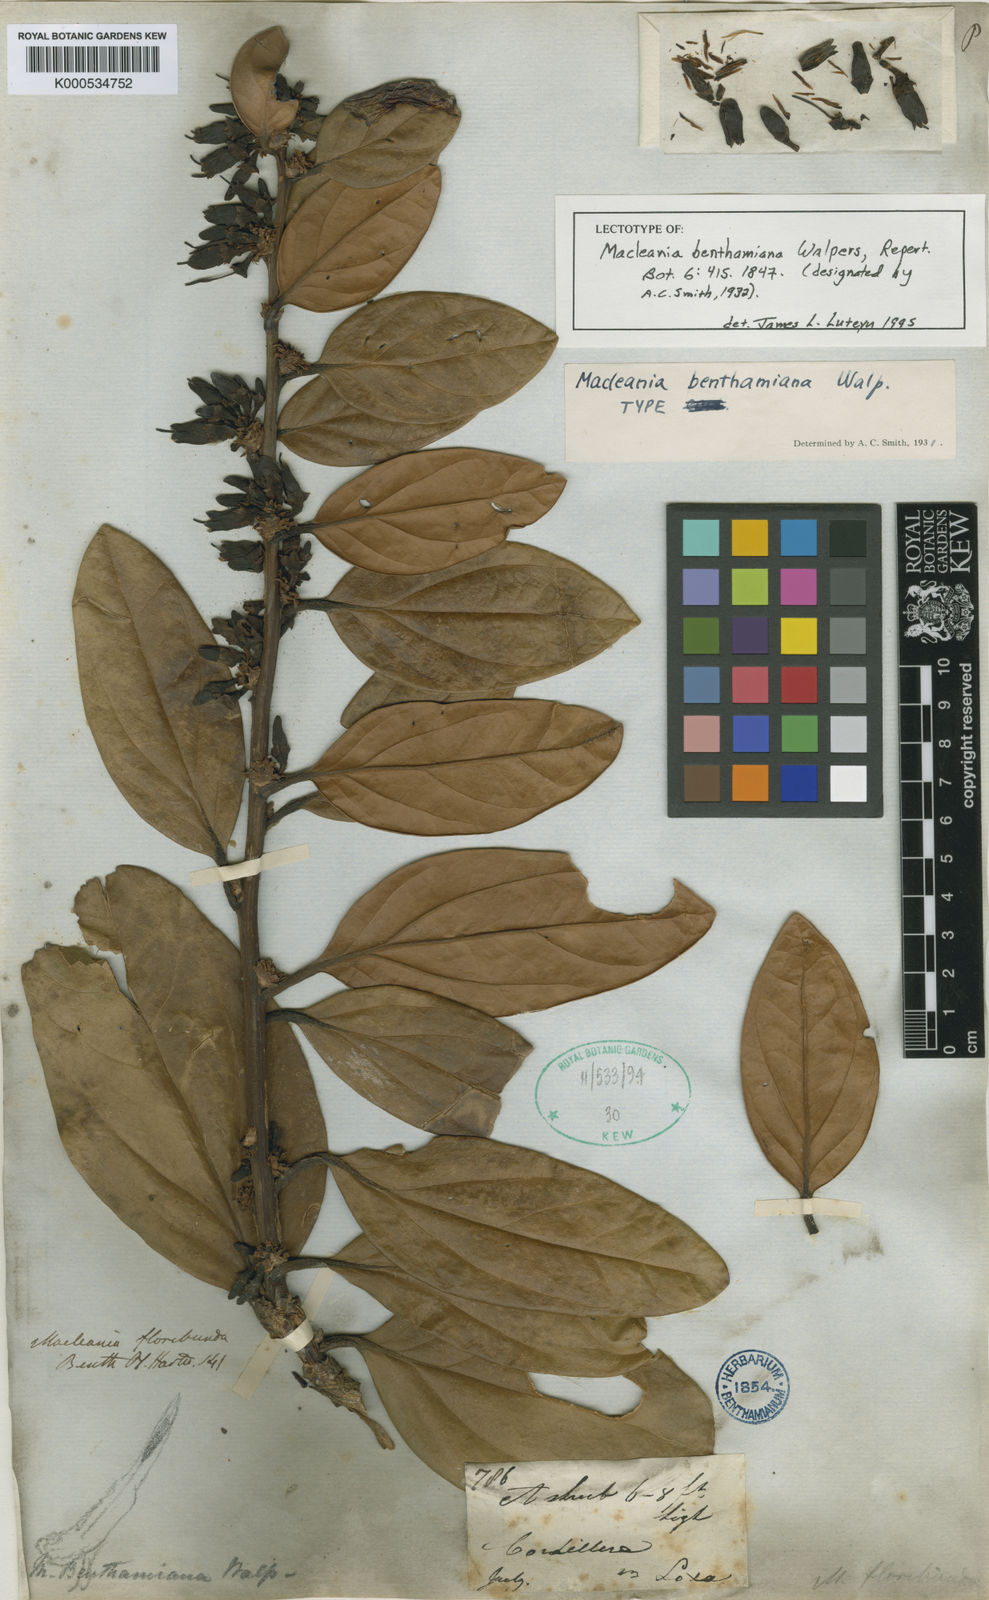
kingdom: Plantae
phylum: Tracheophyta
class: Magnoliopsida
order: Ericales
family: Ericaceae
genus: Macleania
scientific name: Macleania benthamiana
